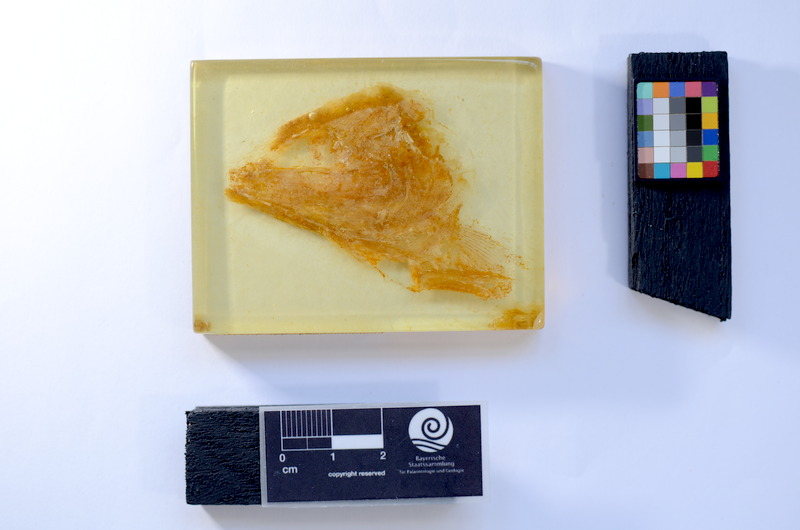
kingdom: Animalia
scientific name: Animalia
